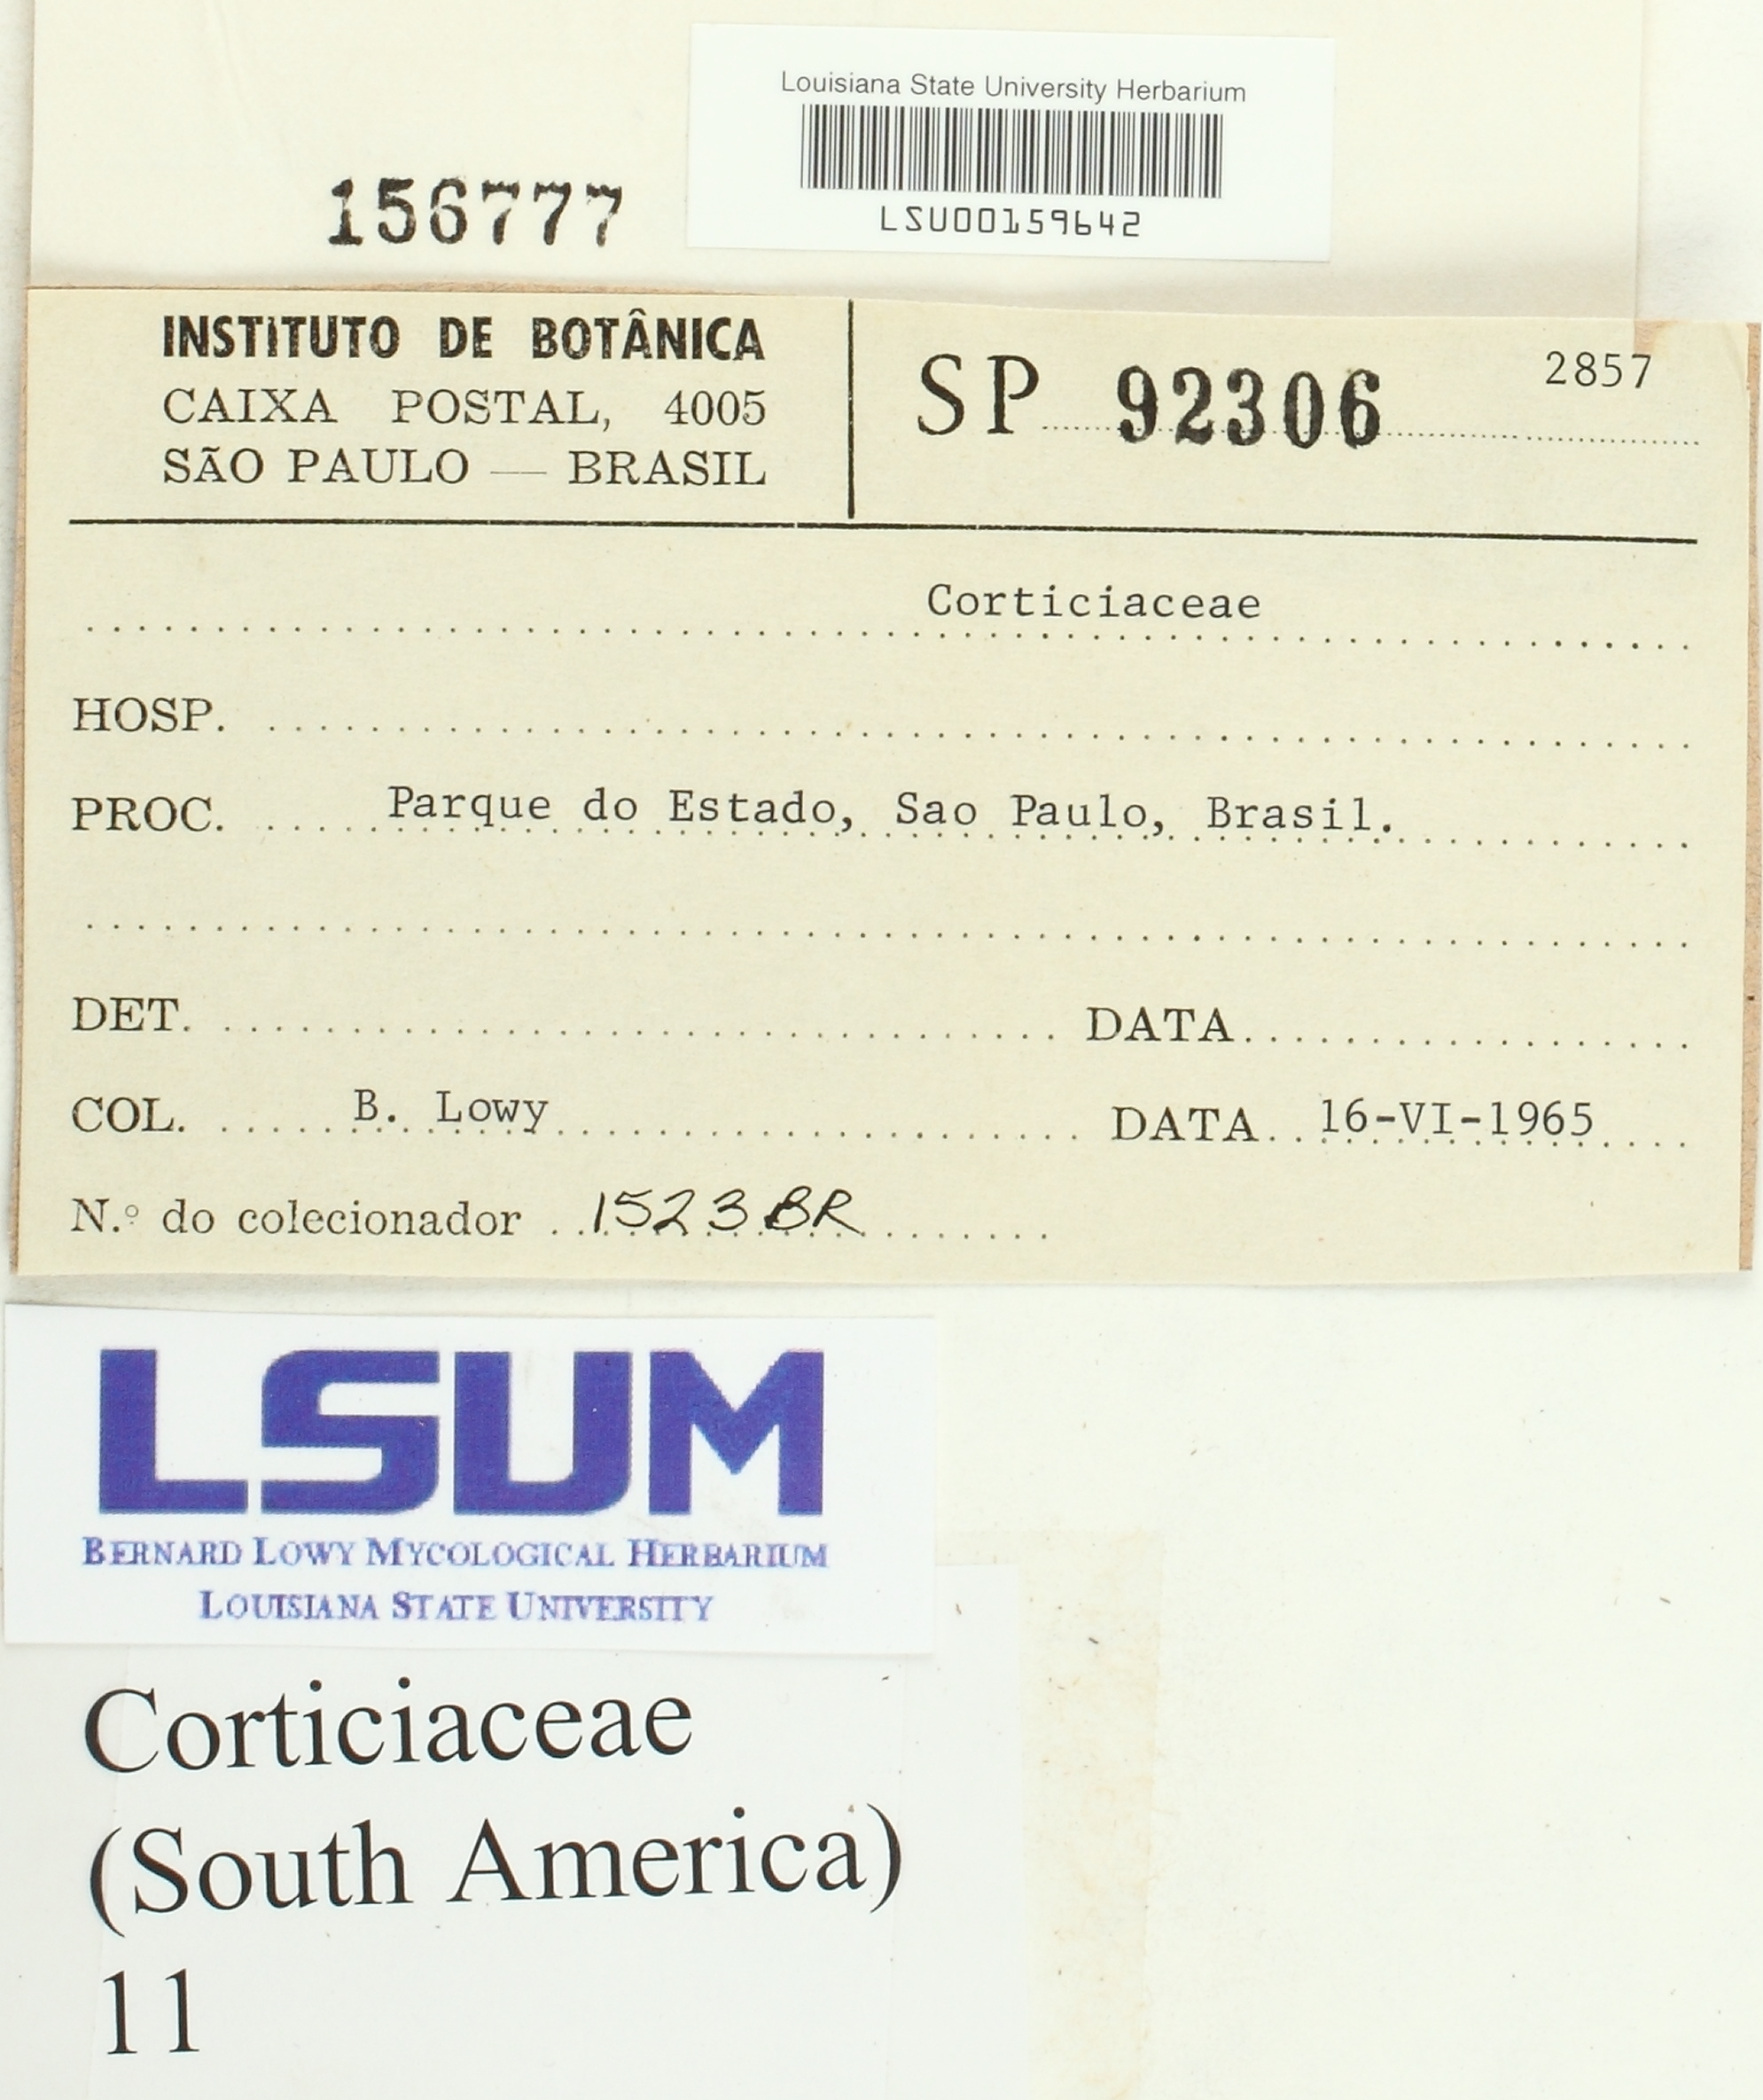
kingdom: Fungi
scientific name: Fungi
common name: Fungi
